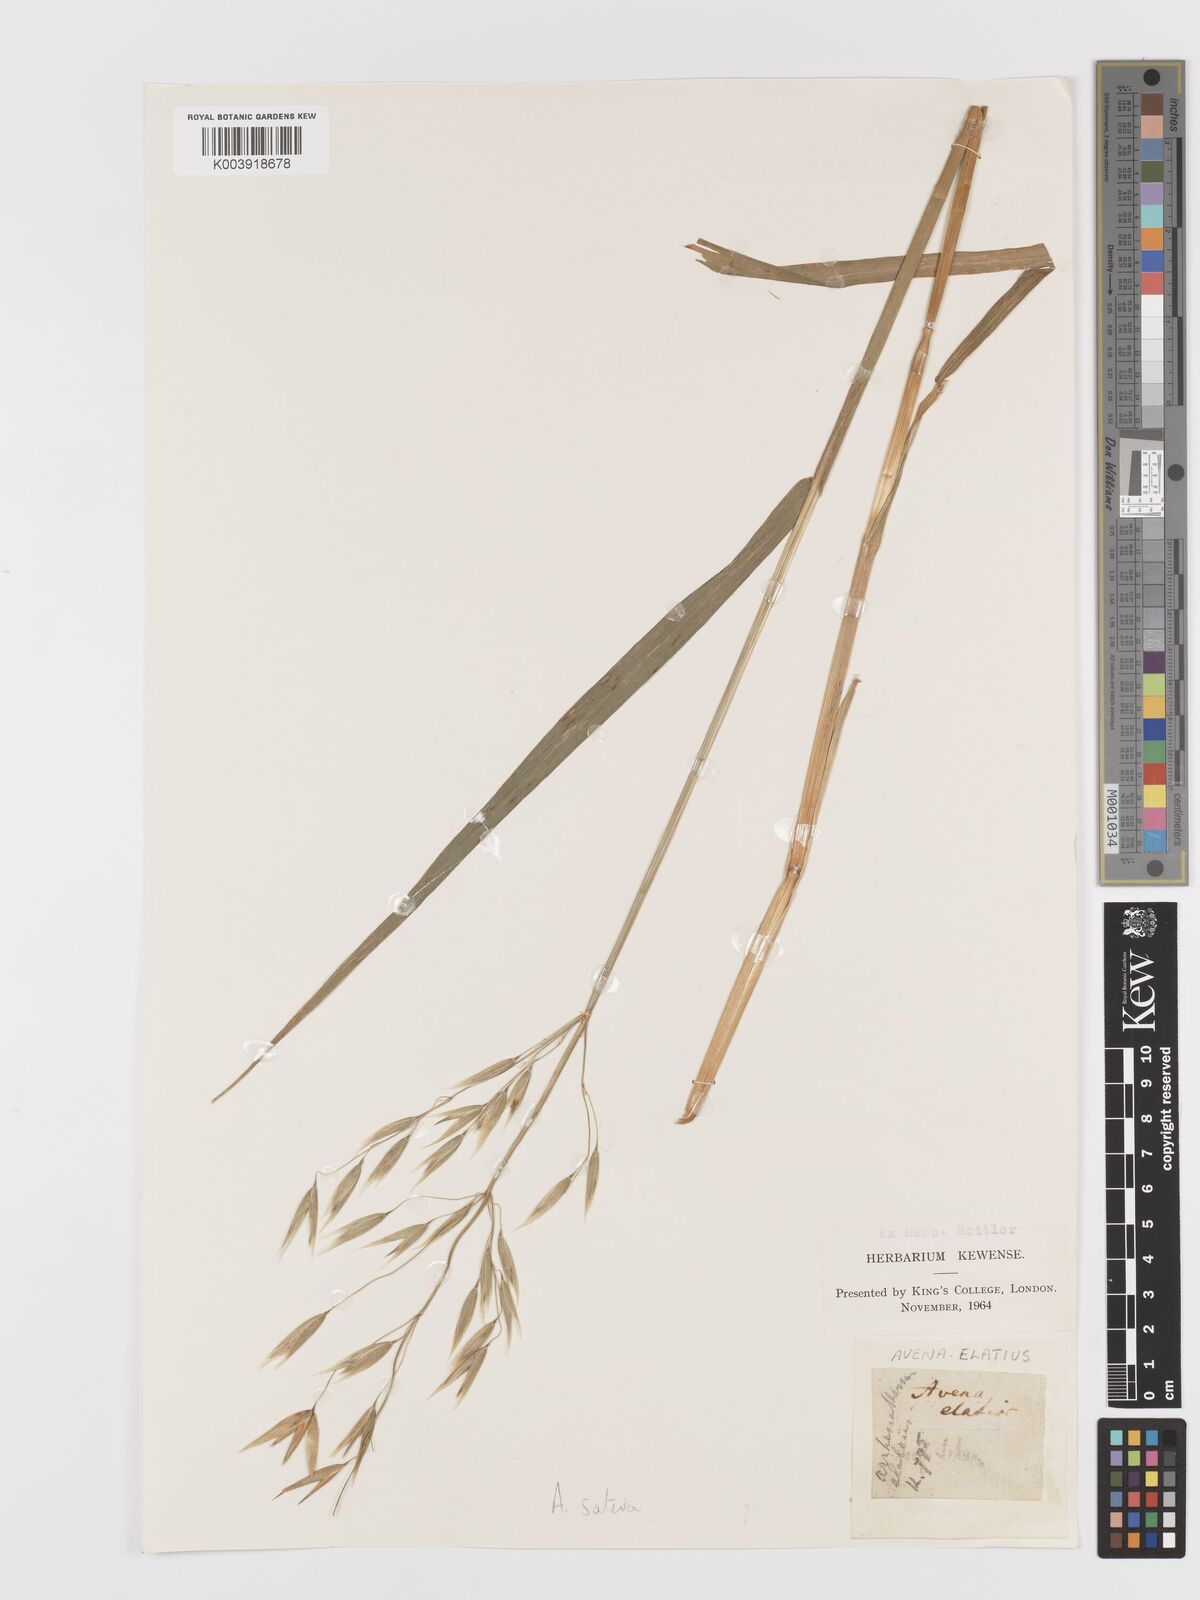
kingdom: Plantae
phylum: Tracheophyta
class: Liliopsida
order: Poales
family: Poaceae
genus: Avena
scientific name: Avena sativa
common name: Oat
